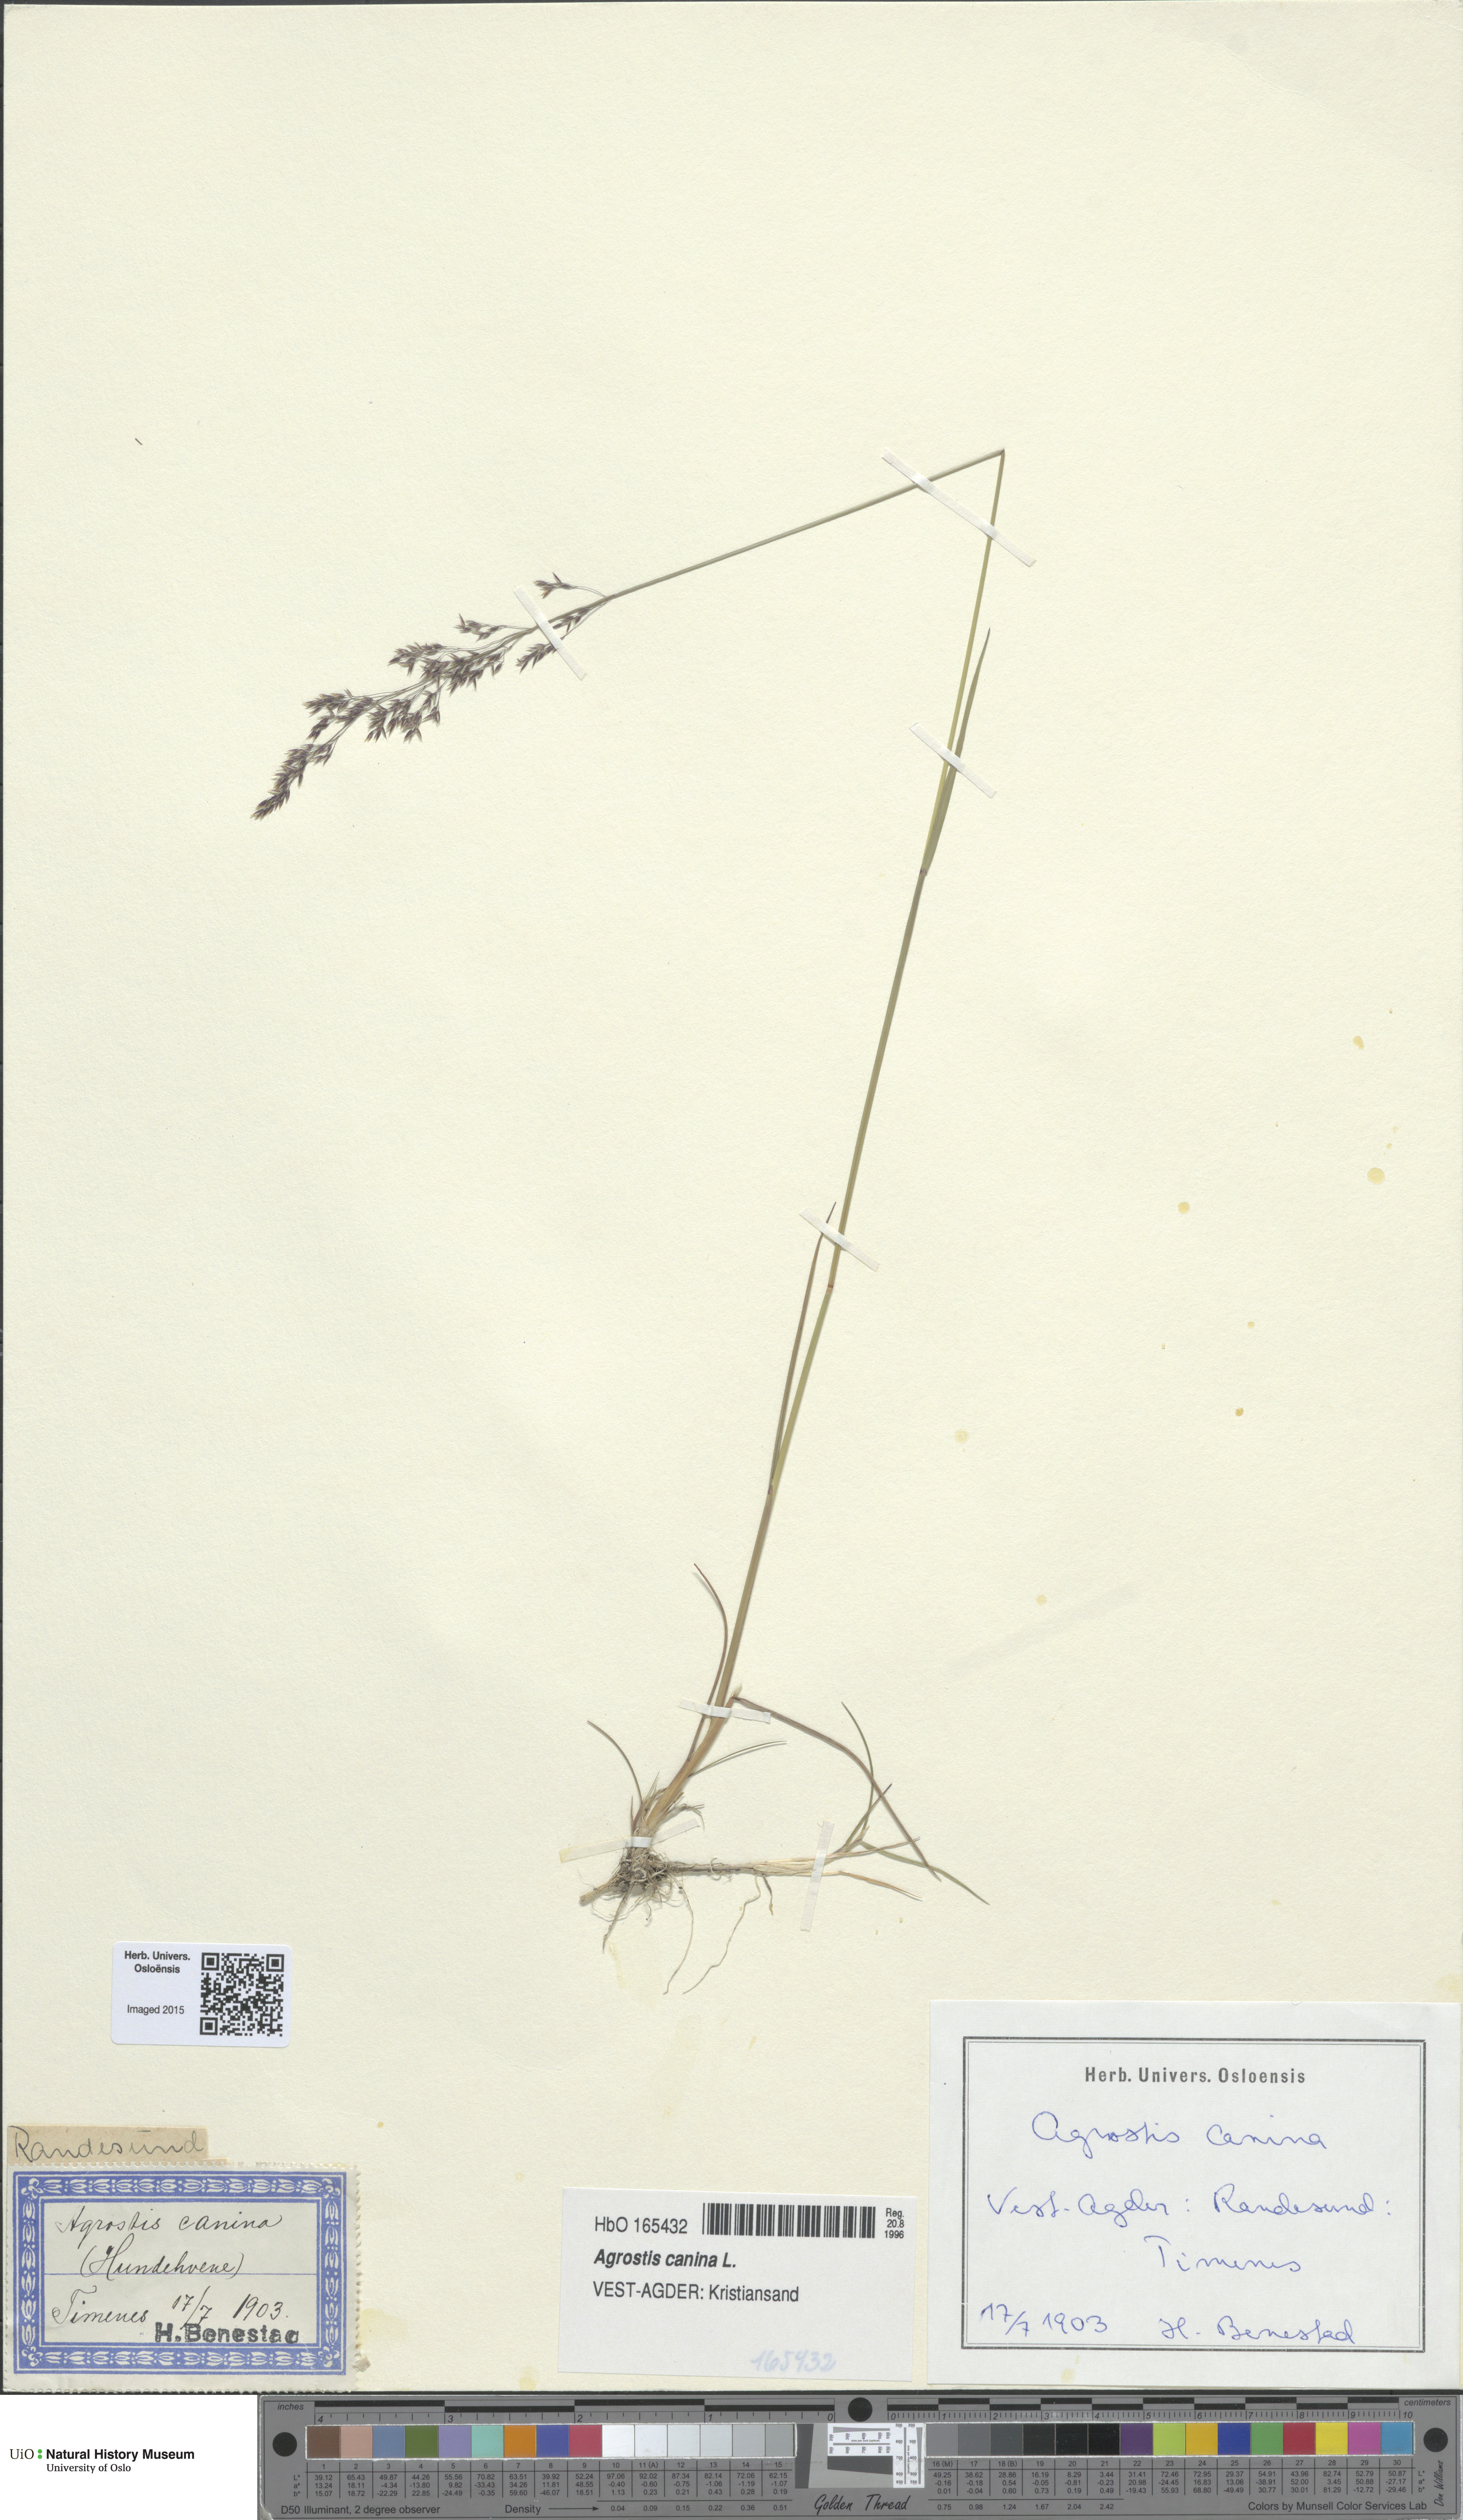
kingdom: Plantae
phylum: Tracheophyta
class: Liliopsida
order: Poales
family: Poaceae
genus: Agrostis
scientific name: Agrostis canina
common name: Velvet bent
